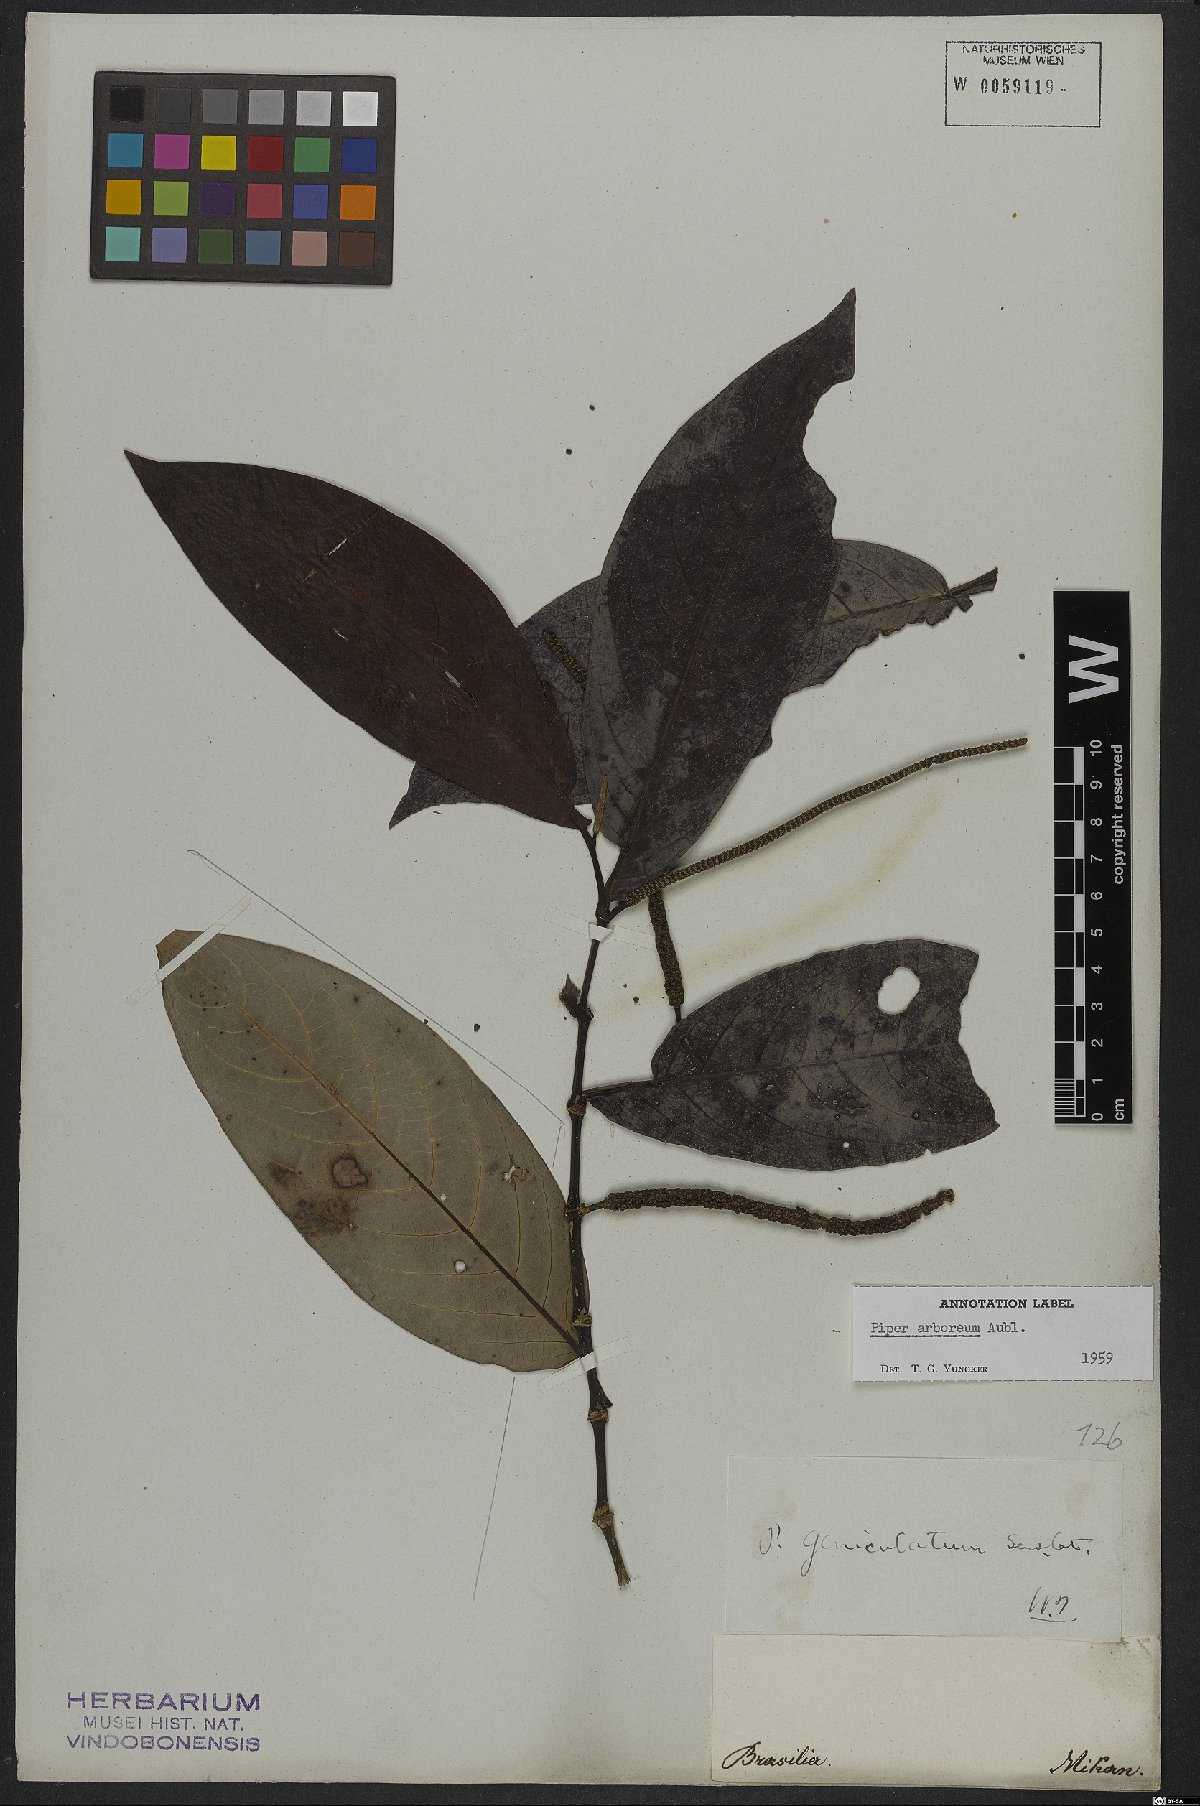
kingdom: Plantae
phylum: Tracheophyta
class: Magnoliopsida
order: Piperales
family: Piperaceae
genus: Piper
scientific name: Piper arboreum
